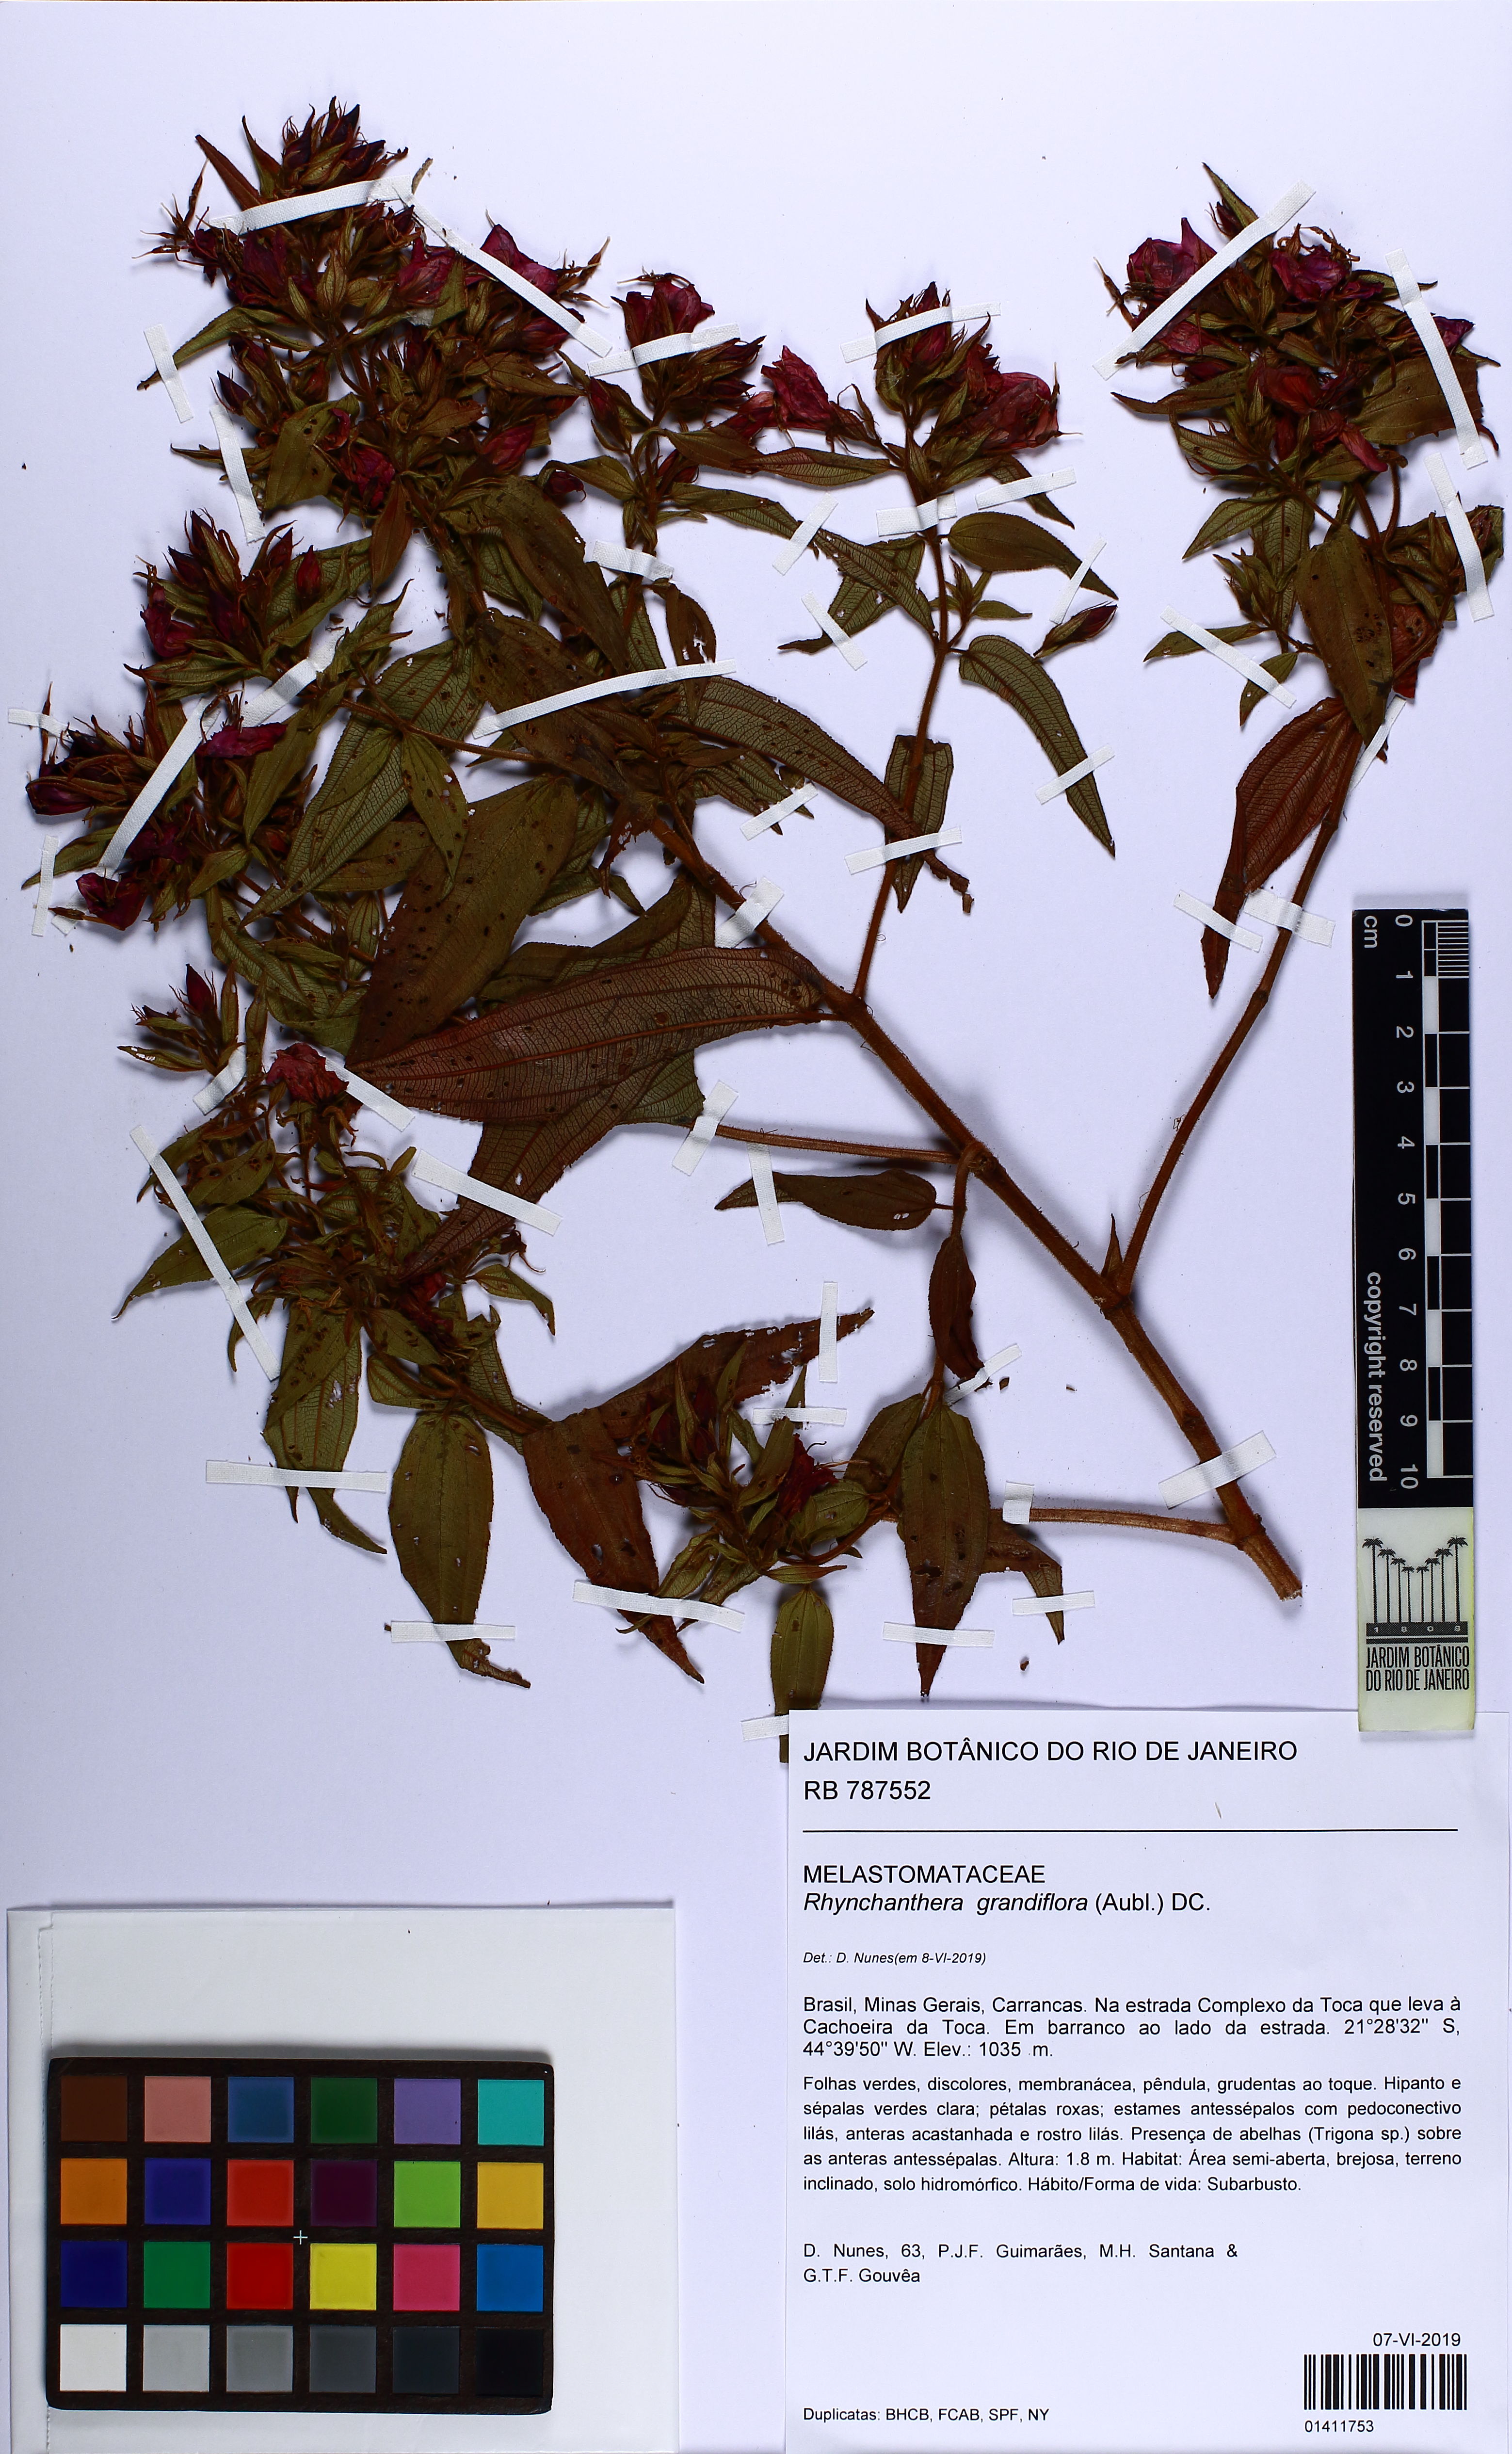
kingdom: Plantae
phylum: Tracheophyta
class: Magnoliopsida
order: Myrtales
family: Melastomataceae
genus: Rhynchanthera
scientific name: Rhynchanthera grandiflora
